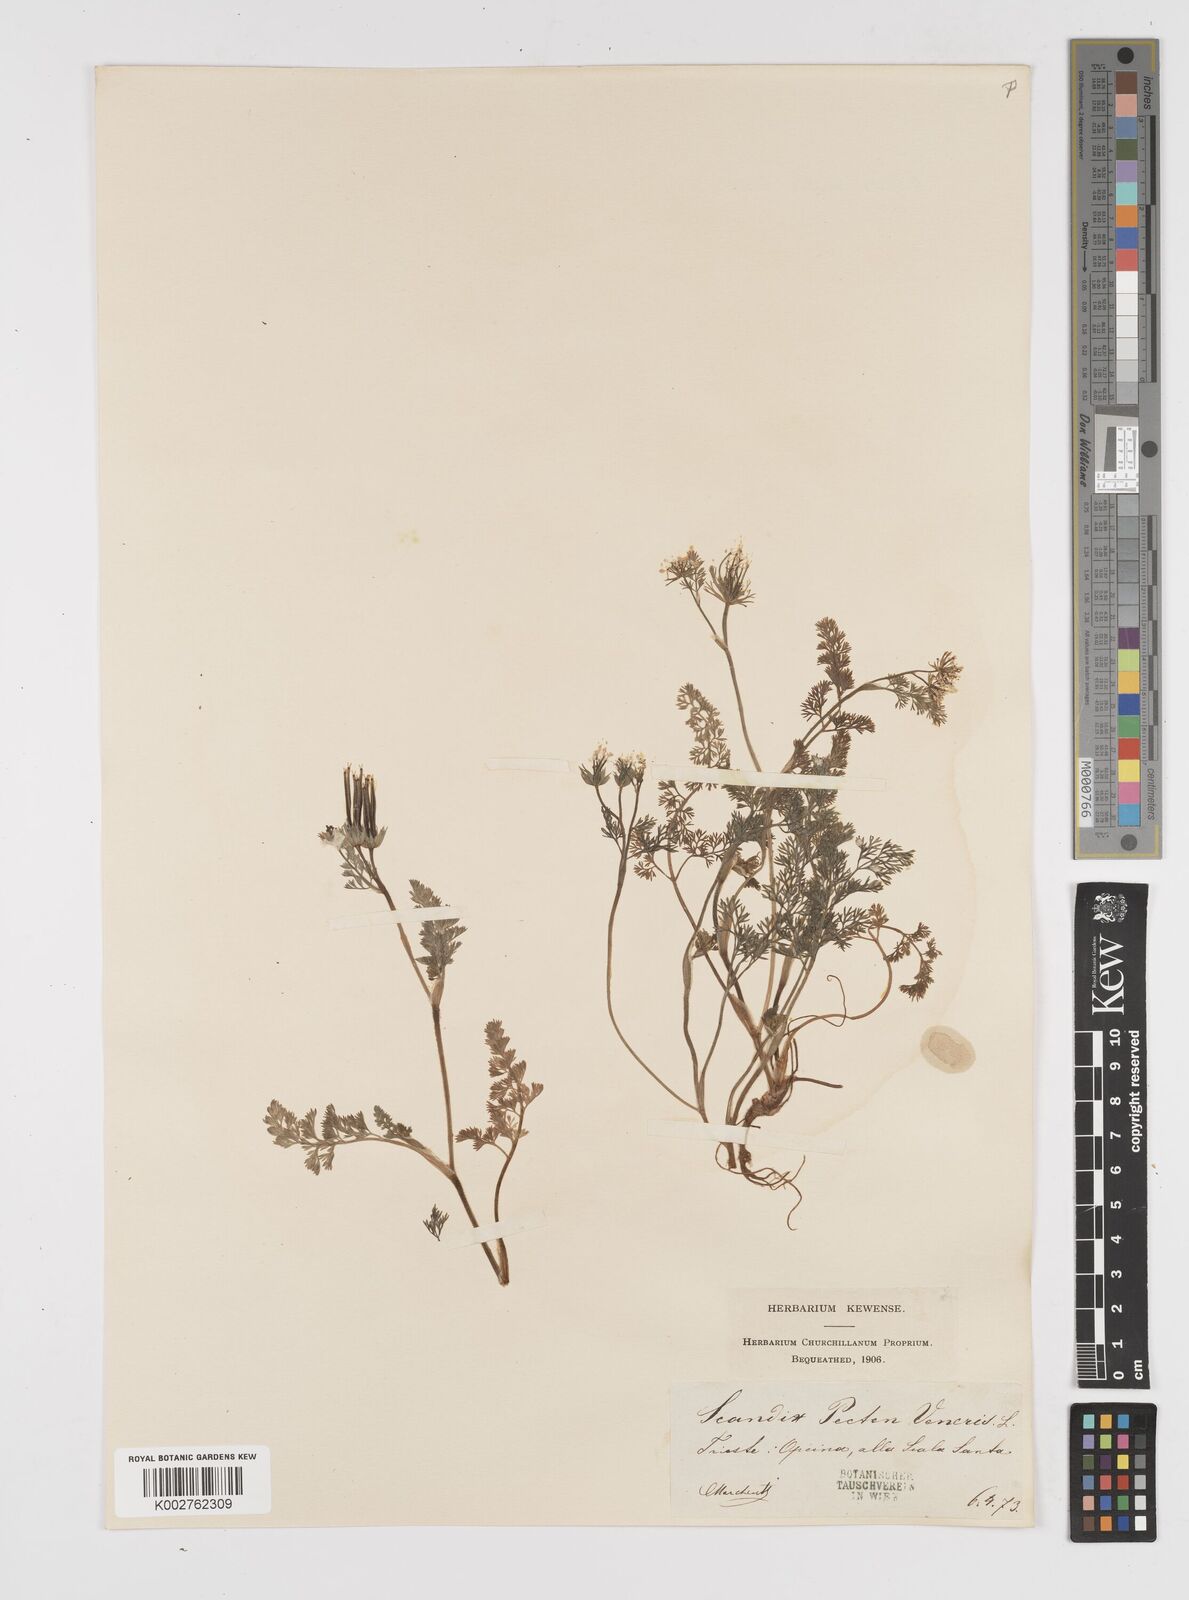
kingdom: Plantae
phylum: Tracheophyta
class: Magnoliopsida
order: Apiales
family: Apiaceae
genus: Scandix
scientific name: Scandix pecten-veneris
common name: Shepherd's-needle
